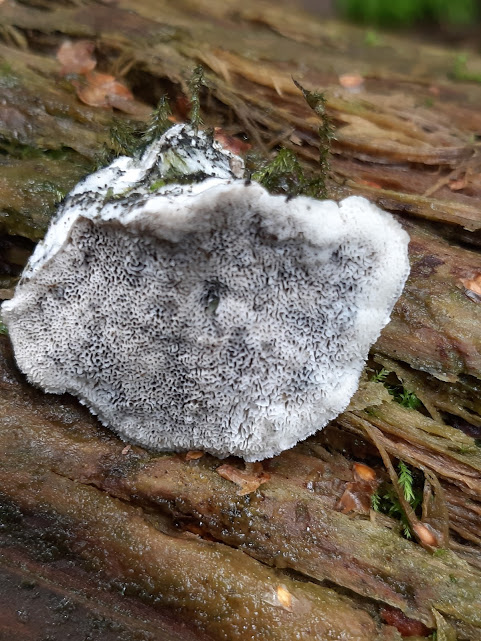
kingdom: Fungi
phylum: Basidiomycota
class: Agaricomycetes
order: Polyporales
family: Dacryobolaceae
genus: Postia
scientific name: Postia
